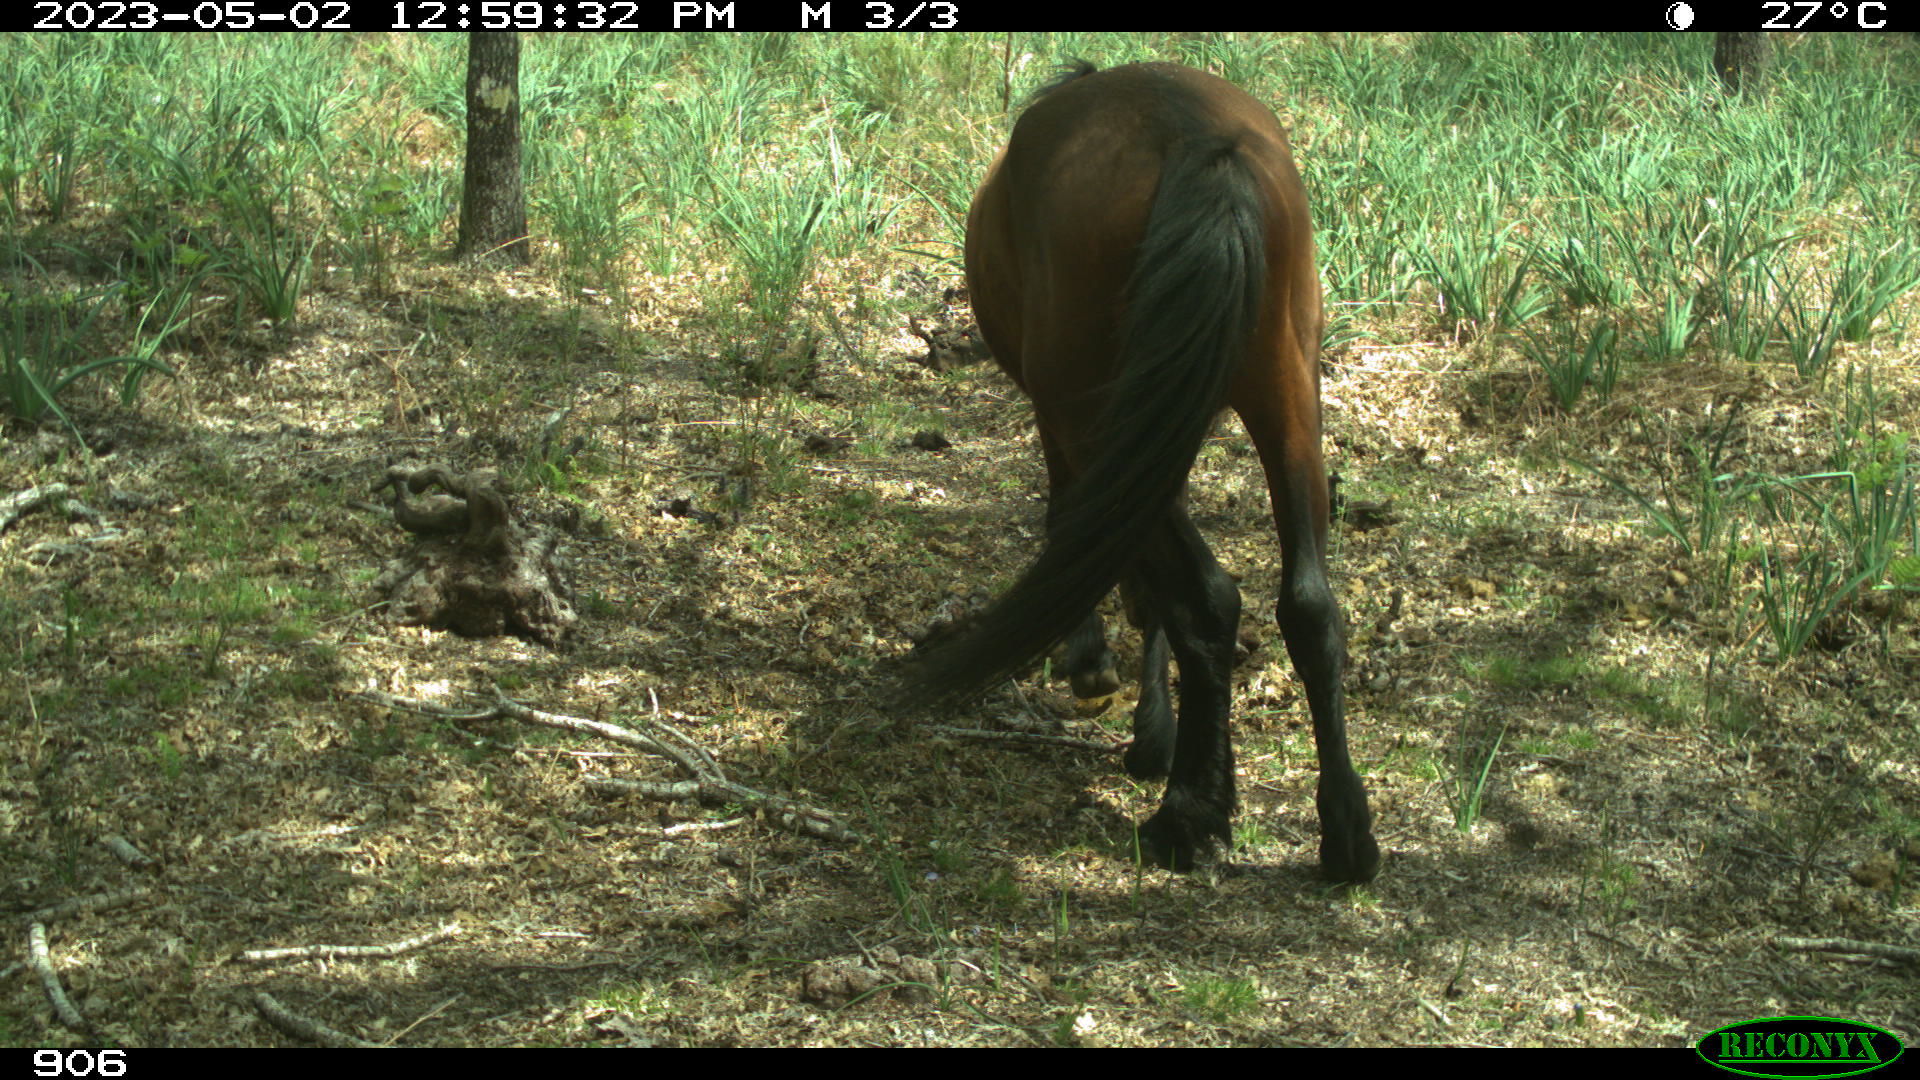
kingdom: Animalia
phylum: Chordata
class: Mammalia
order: Perissodactyla
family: Equidae
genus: Equus
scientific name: Equus caballus
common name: Horse
